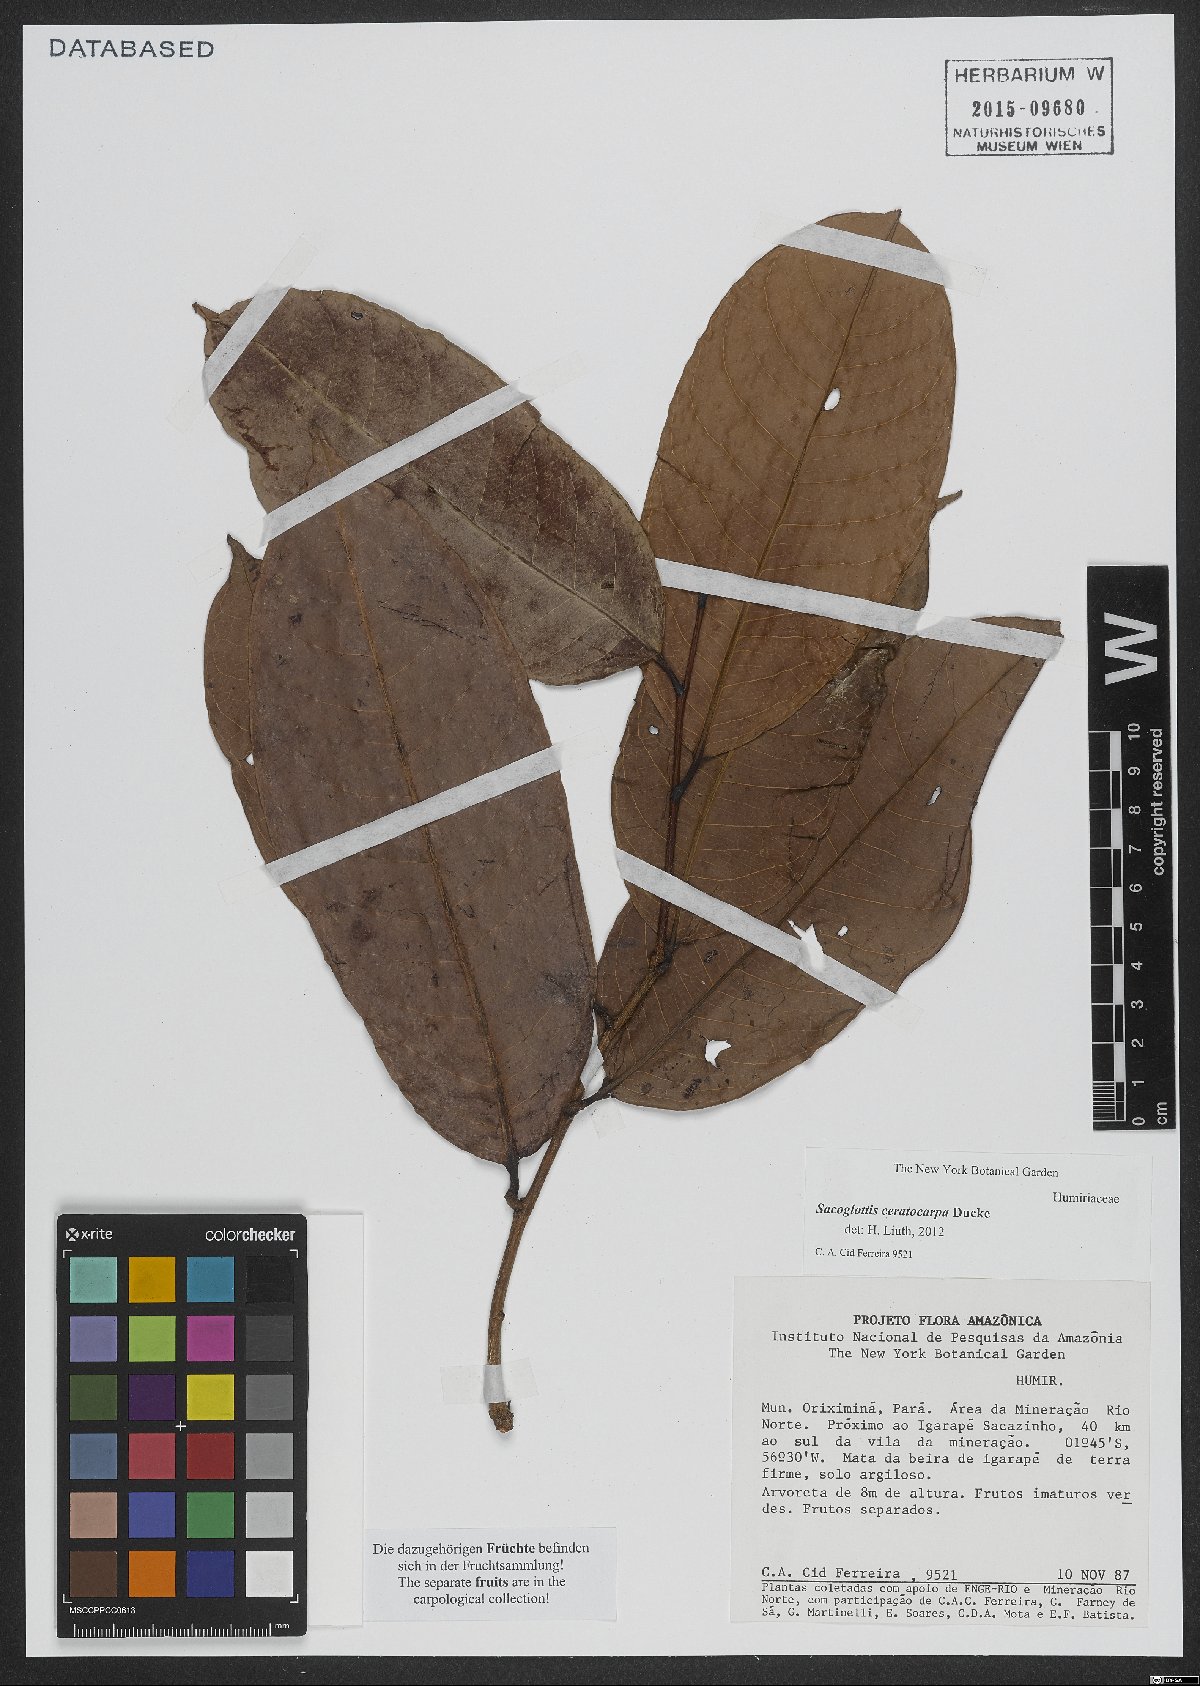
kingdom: Plantae
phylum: Tracheophyta
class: Magnoliopsida
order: Malpighiales
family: Humiriaceae
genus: Sacoglottis
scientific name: Sacoglottis ceratocarpa
